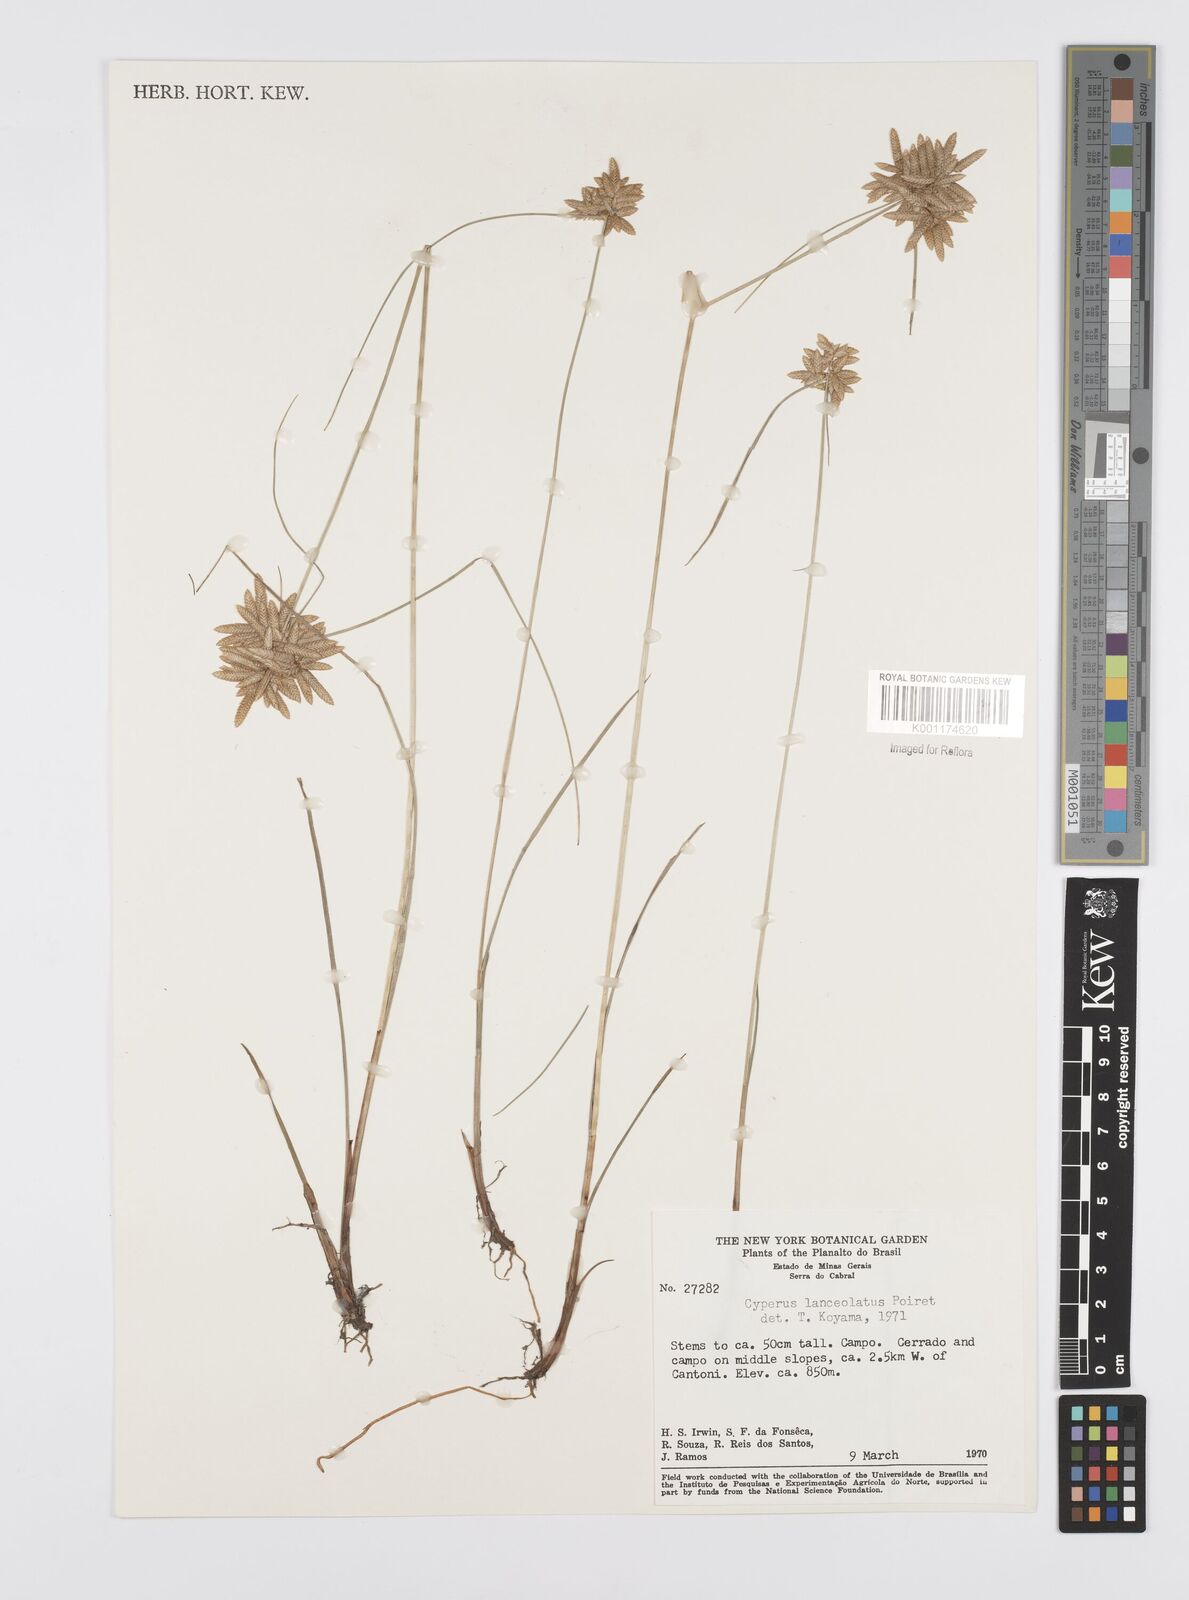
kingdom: Plantae
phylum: Tracheophyta
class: Liliopsida
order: Poales
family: Cyperaceae
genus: Cyperus
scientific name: Cyperus
